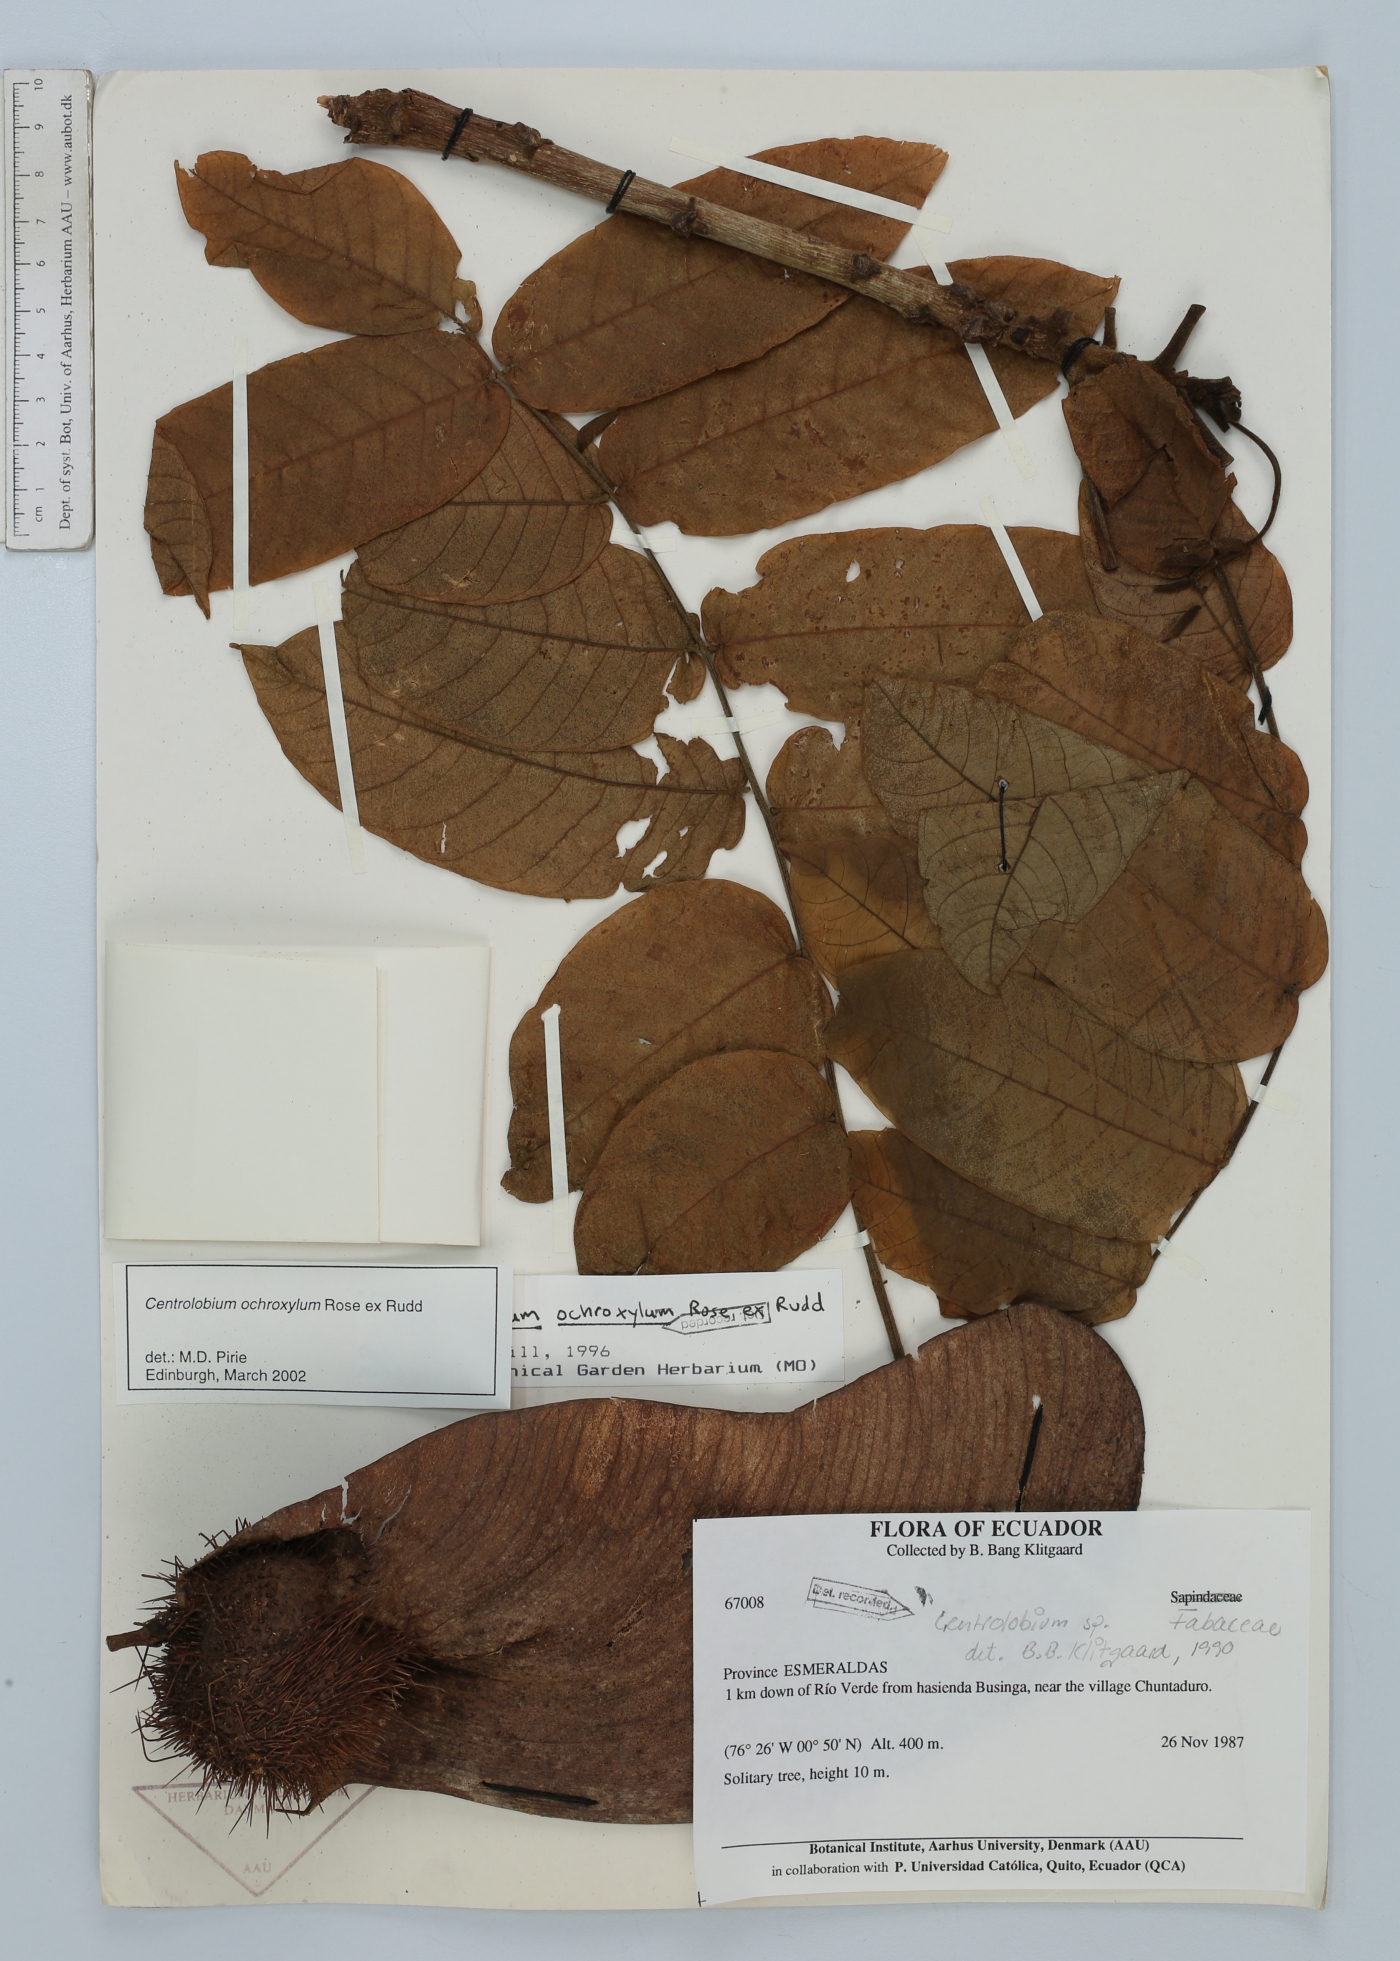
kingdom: Plantae
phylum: Tracheophyta
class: Magnoliopsida
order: Fabales
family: Fabaceae
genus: Centrolobium
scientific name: Centrolobium ochroxylum
